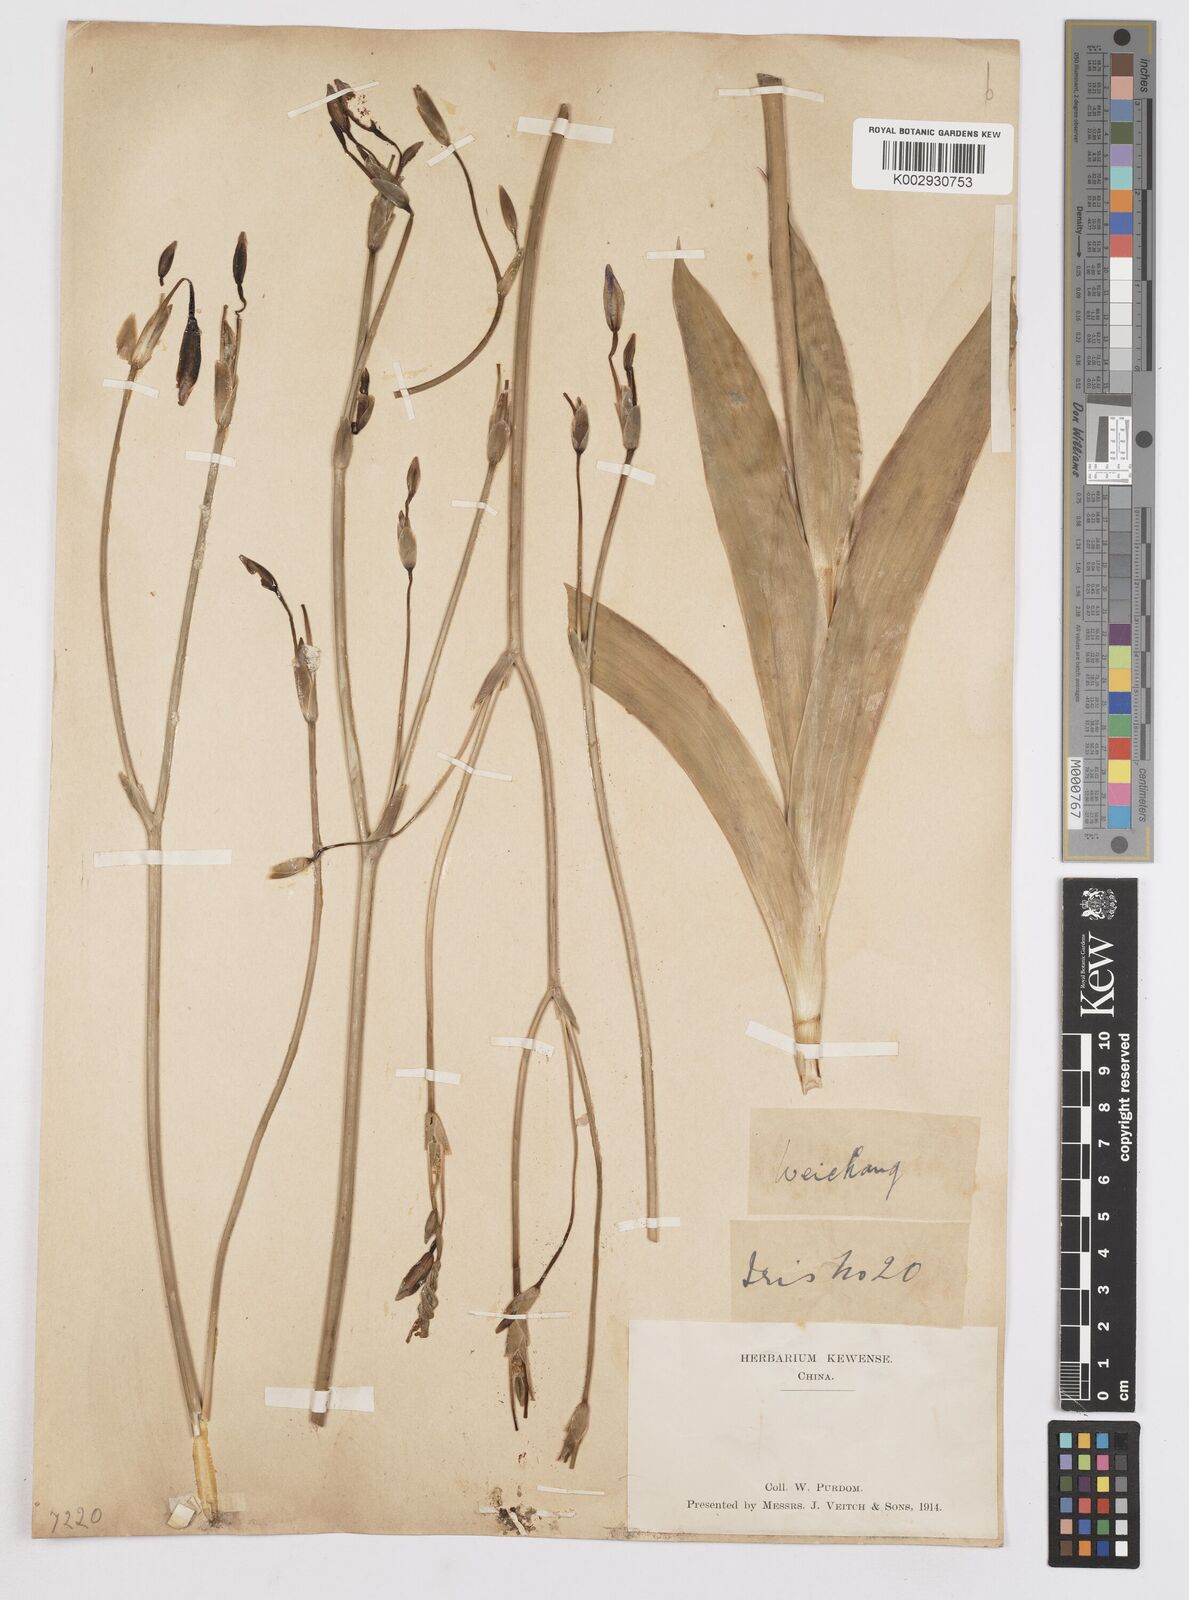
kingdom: Plantae
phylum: Tracheophyta
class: Liliopsida
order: Asparagales
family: Iridaceae
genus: Iris
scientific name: Iris dichotoma
